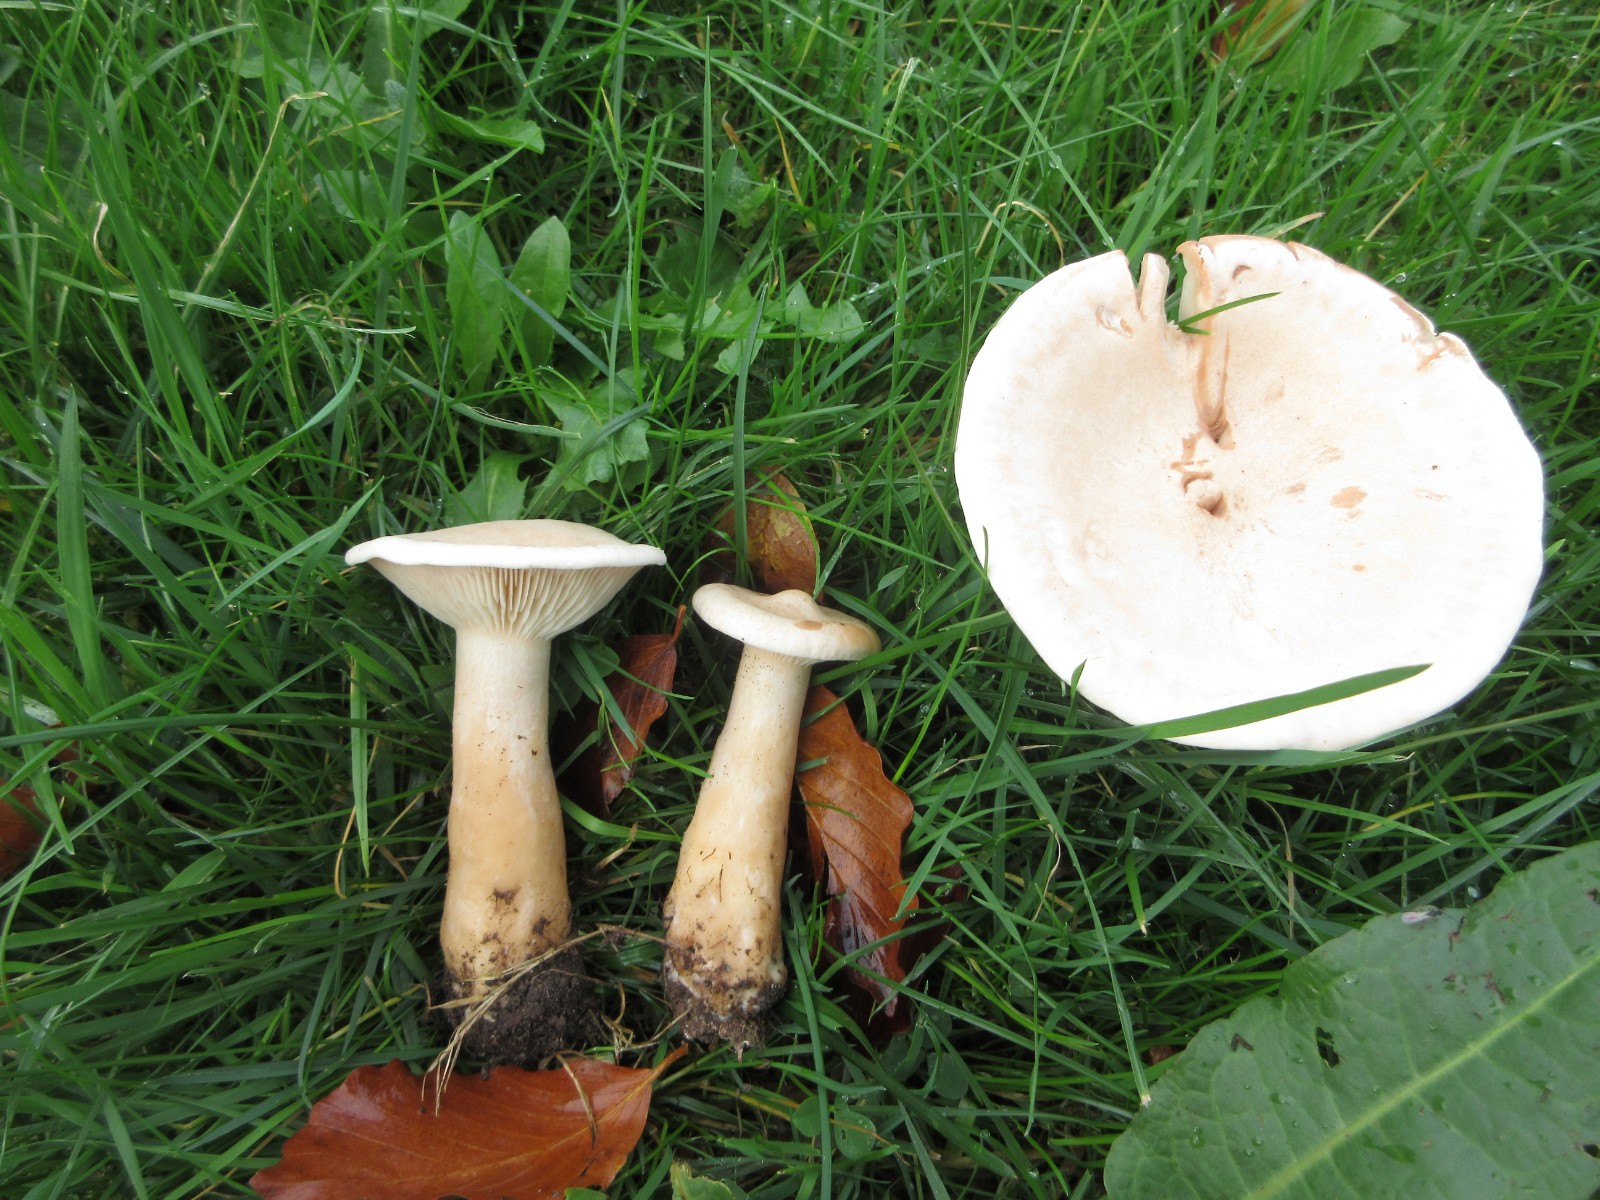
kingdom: Fungi
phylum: Basidiomycota
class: Agaricomycetes
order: Agaricales
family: Tricholomataceae
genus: Infundibulicybe
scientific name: Infundibulicybe geotropa
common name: stor tragthat
